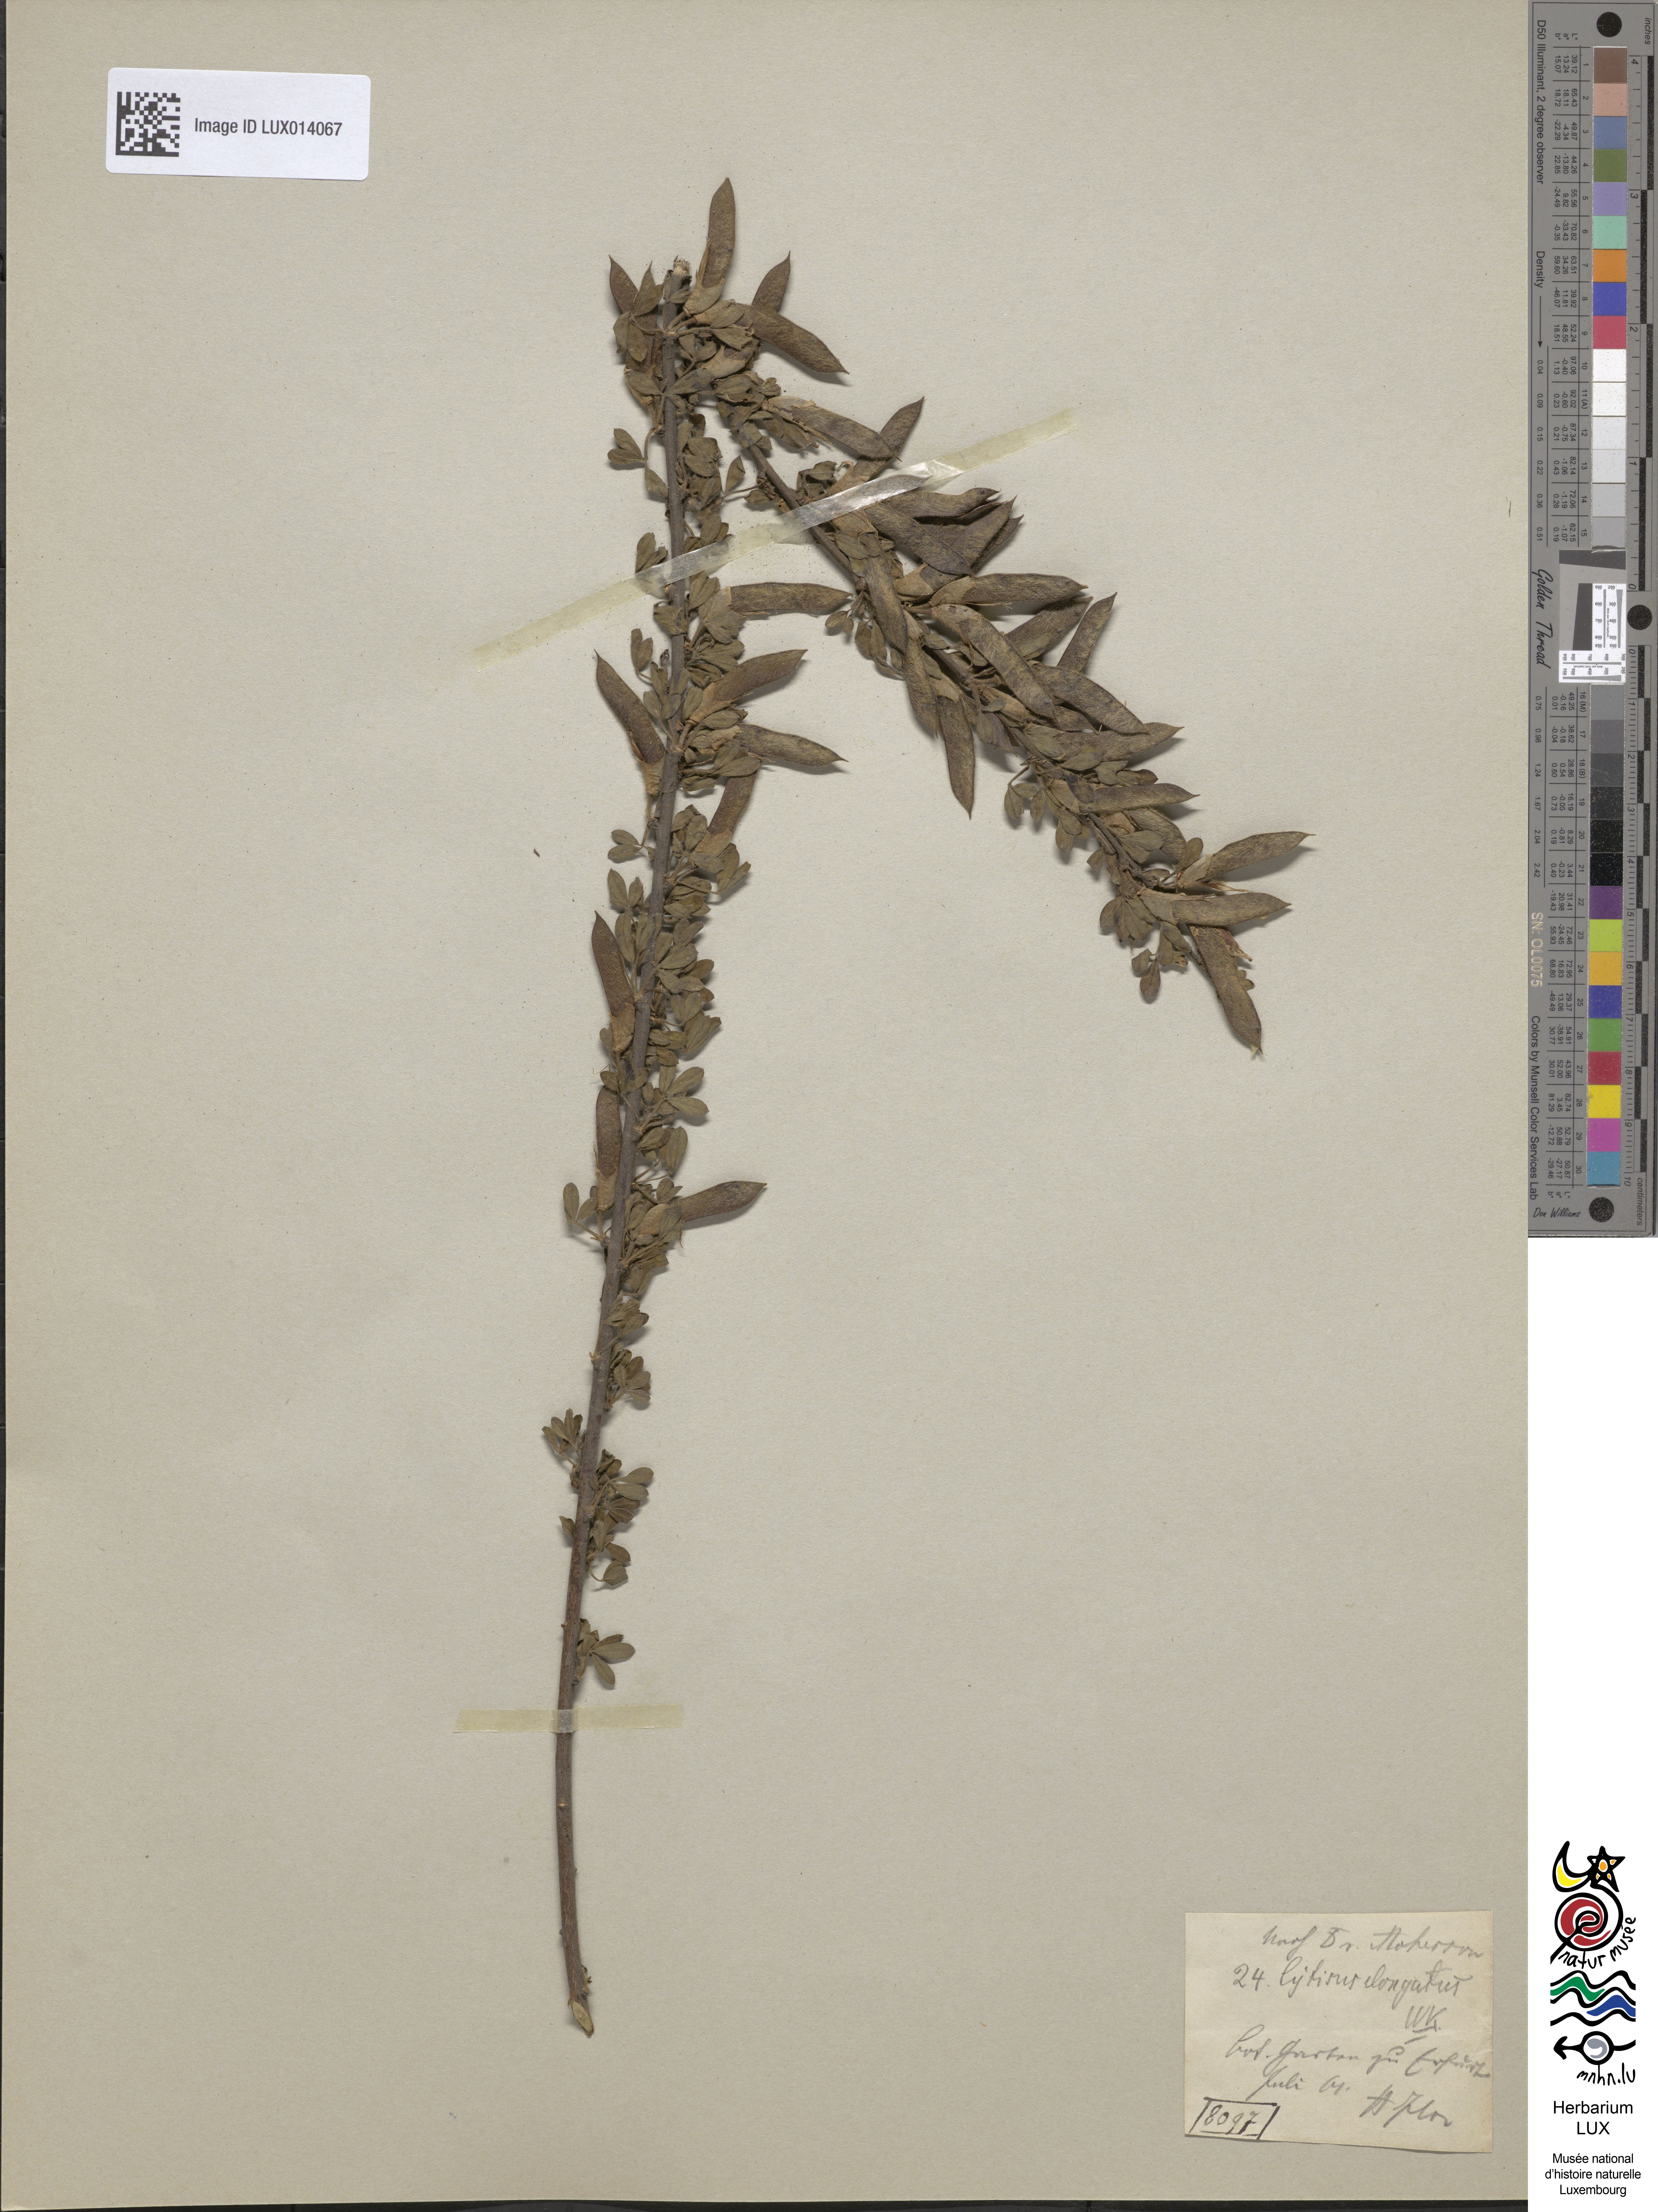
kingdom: Plantae
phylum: Tracheophyta
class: Magnoliopsida
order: Fabales
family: Fabaceae
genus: Chamaecytisus
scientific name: Chamaecytisus elongatus
